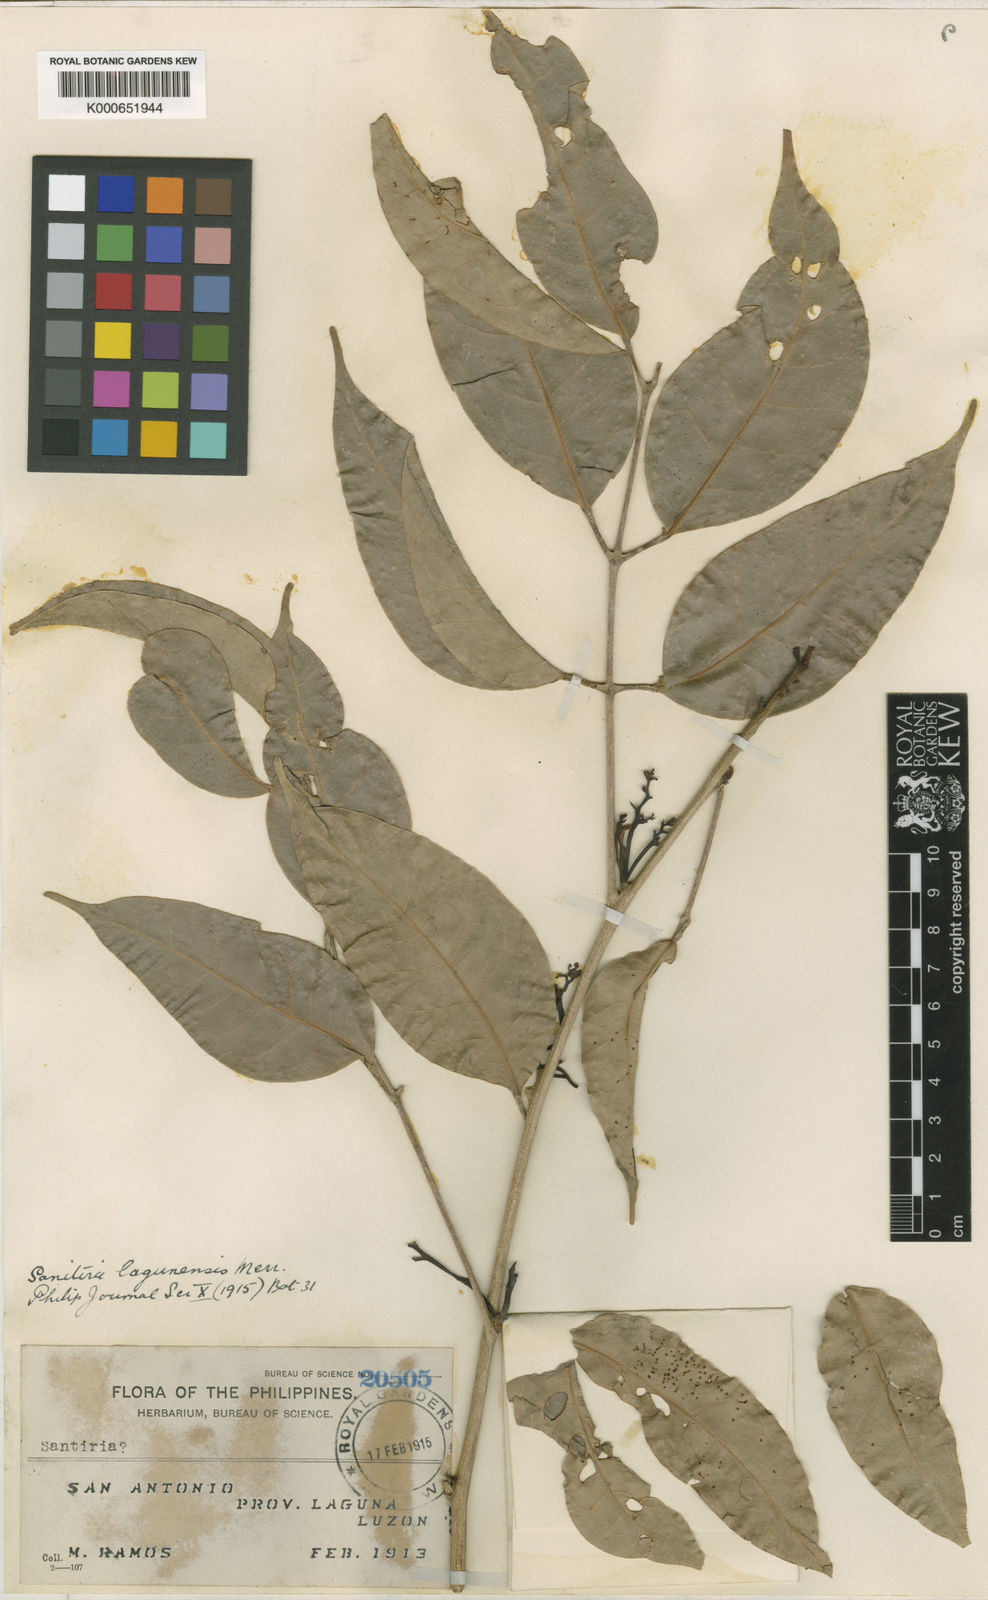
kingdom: Plantae
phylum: Tracheophyta
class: Magnoliopsida
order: Sapindales
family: Burseraceae
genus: Santiria
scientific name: Santiria apiculata
